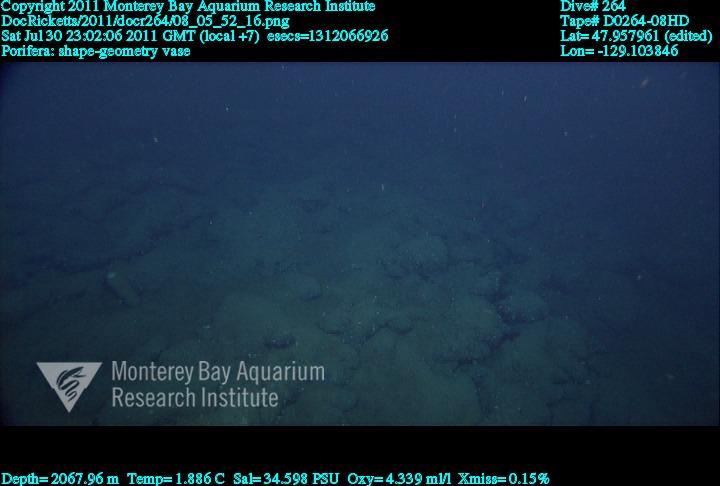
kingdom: Animalia
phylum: Porifera
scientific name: Porifera
